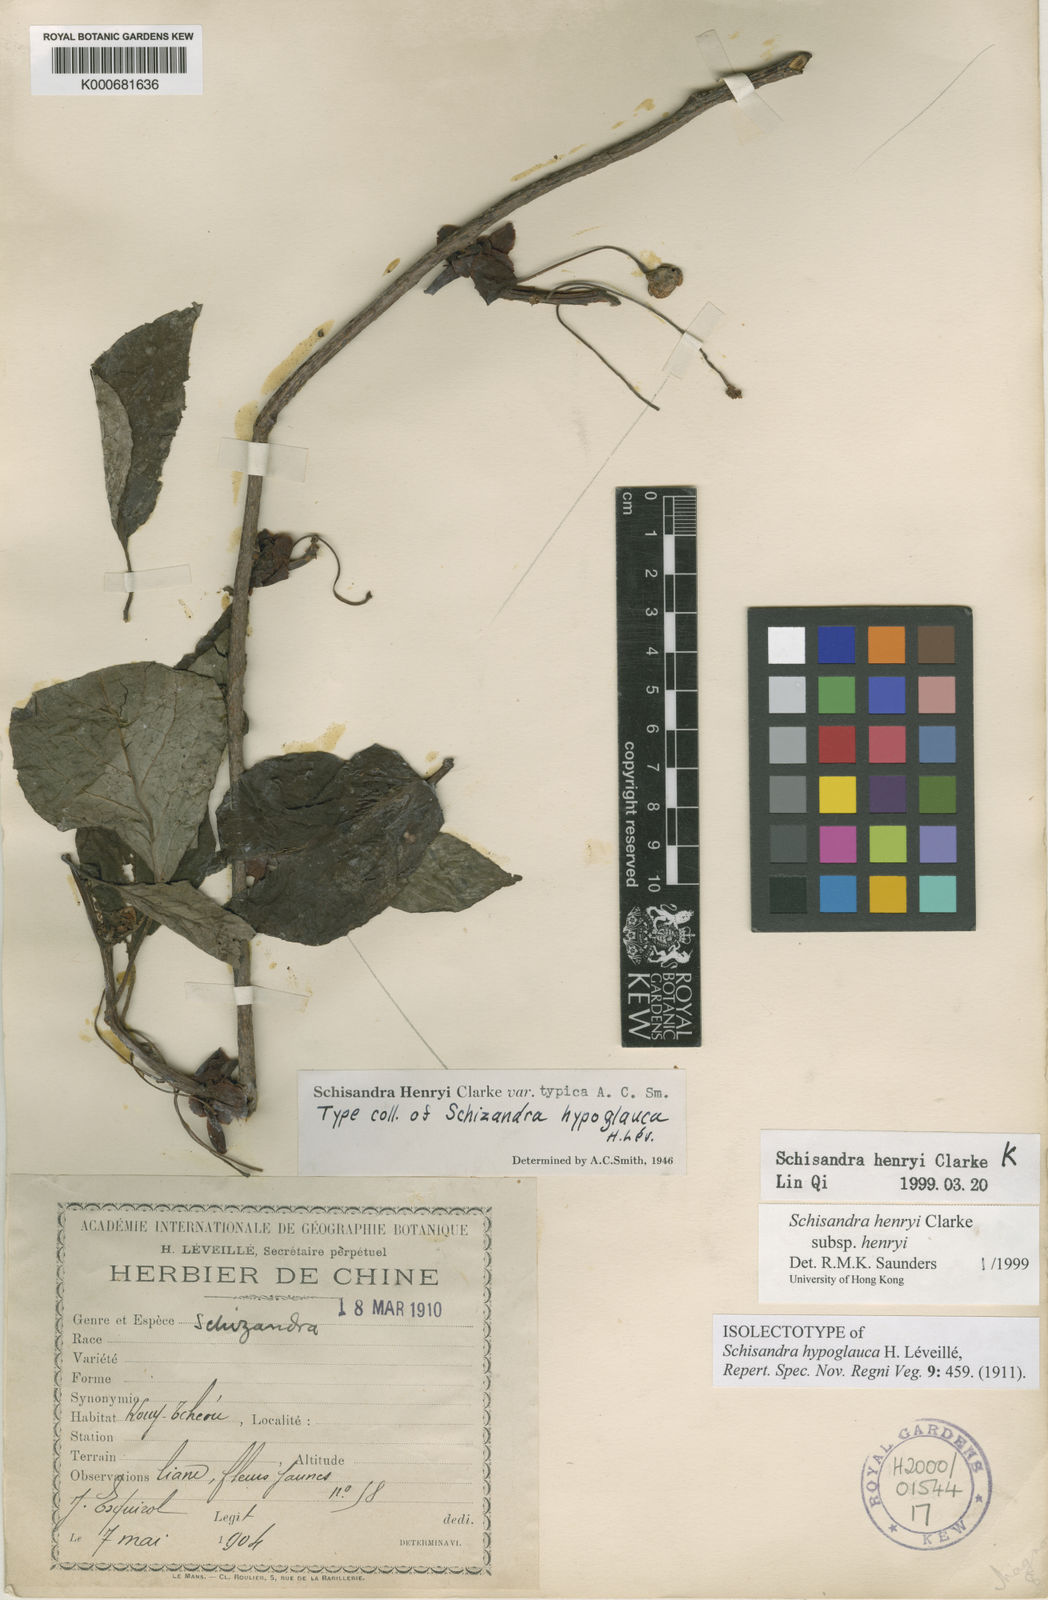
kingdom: Plantae
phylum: Tracheophyta
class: Magnoliopsida
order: Austrobaileyales
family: Schisandraceae
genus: Schisandra
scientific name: Schisandra henryi
